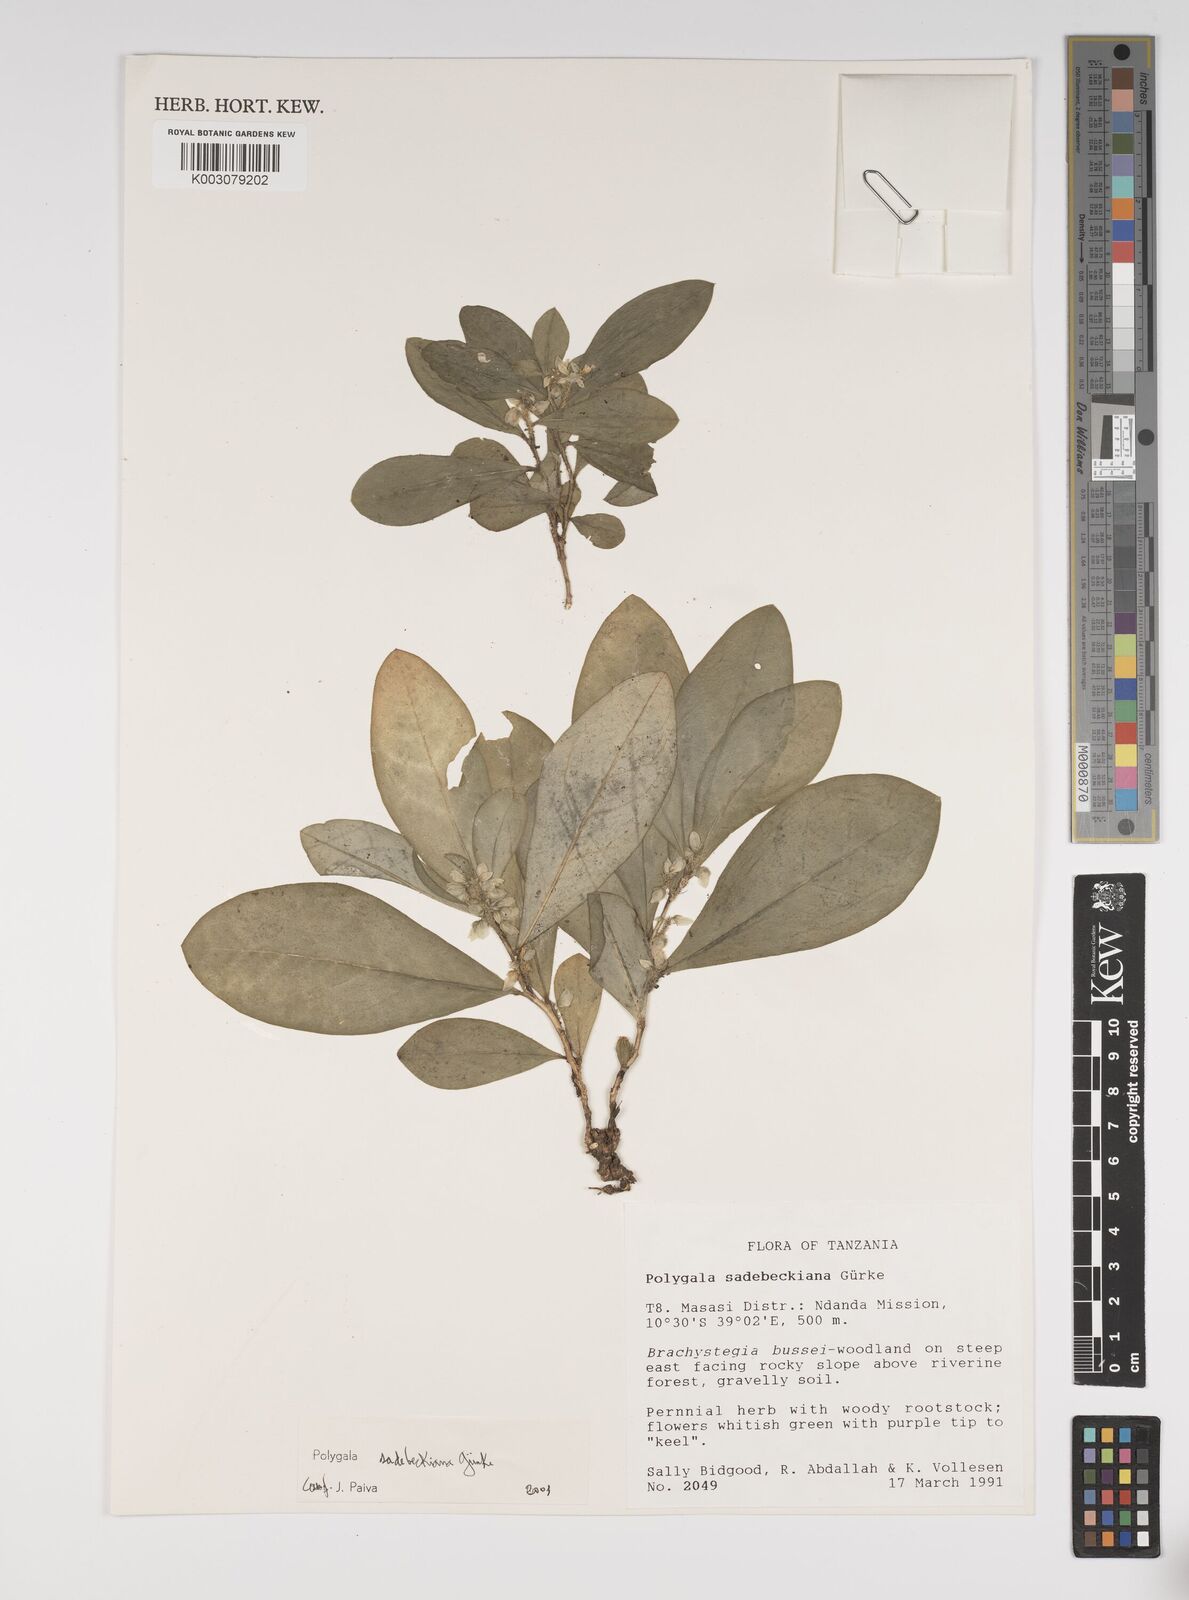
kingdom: Plantae
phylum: Tracheophyta
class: Magnoliopsida
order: Fabales
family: Polygalaceae
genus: Polygala
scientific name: Polygala sadebeckiana
